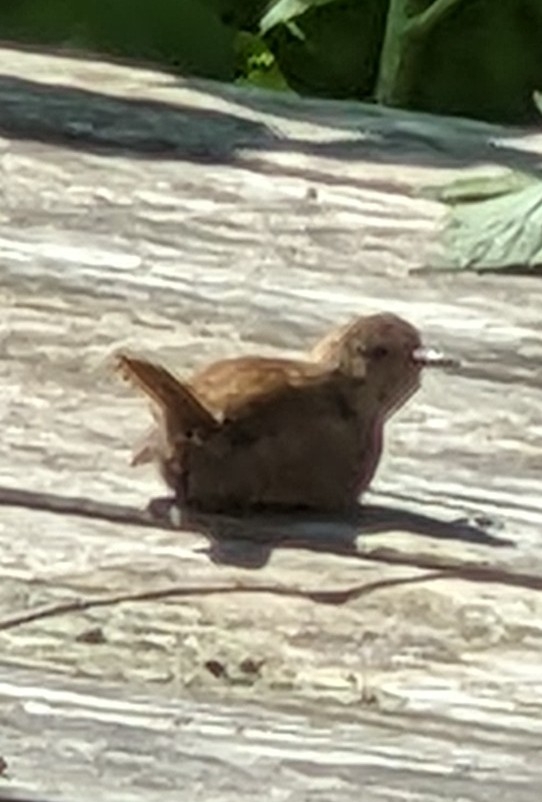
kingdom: Animalia
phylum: Chordata
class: Aves
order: Passeriformes
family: Troglodytidae
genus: Troglodytes
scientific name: Troglodytes troglodytes
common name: Gærdesmutte
